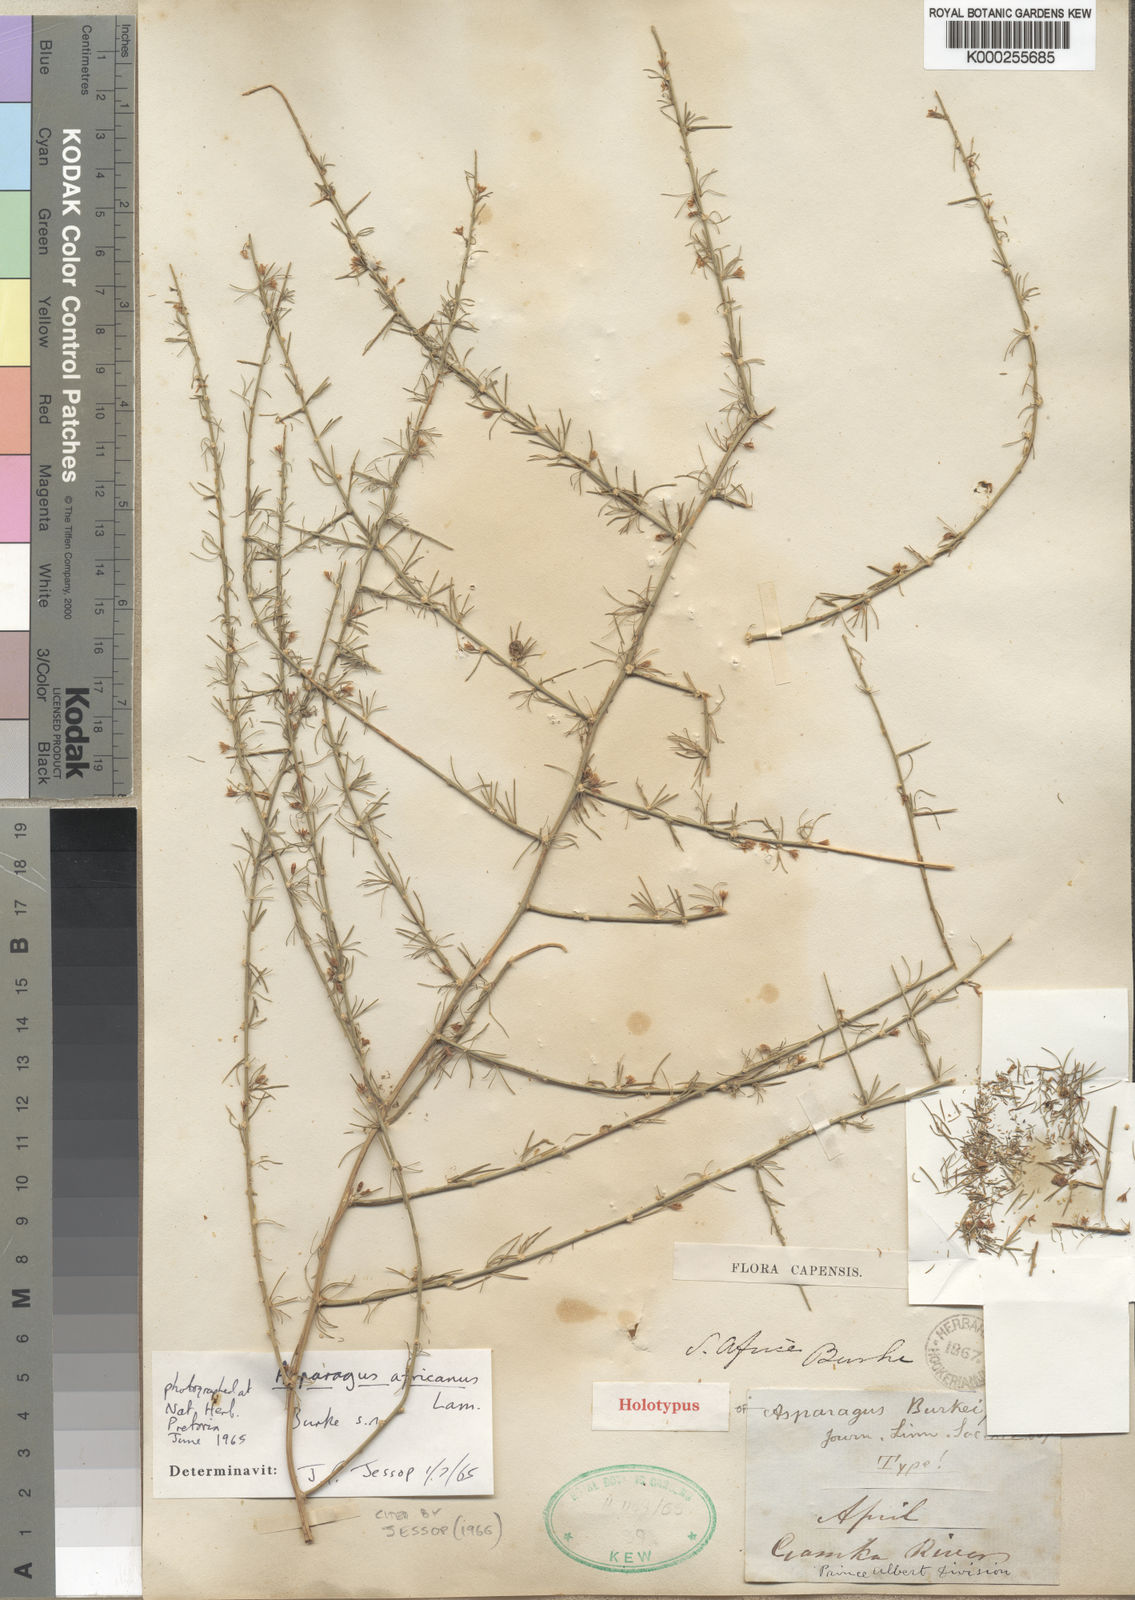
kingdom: Plantae
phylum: Tracheophyta
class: Liliopsida
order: Asparagales
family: Asparagaceae
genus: Asparagus
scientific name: Asparagus africanus
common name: Asparagus-fern
